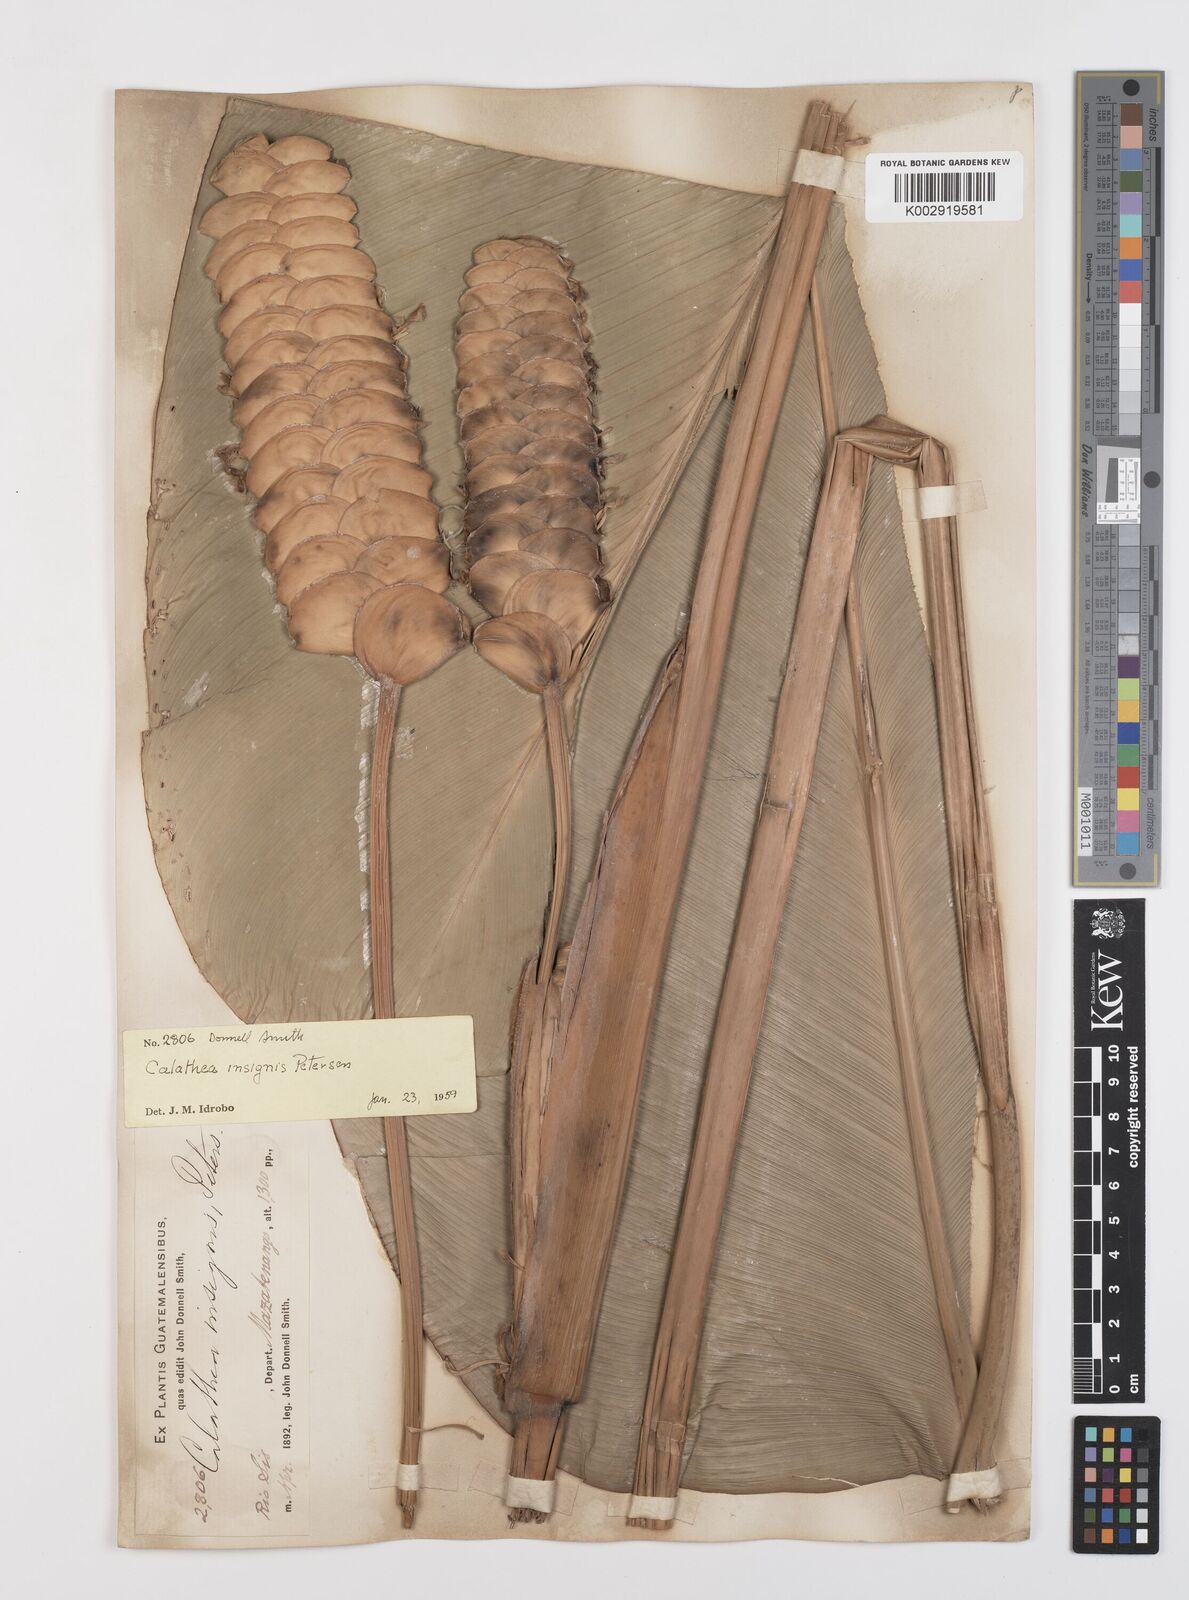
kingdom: Plantae
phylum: Tracheophyta
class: Liliopsida
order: Zingiberales
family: Marantaceae
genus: Calathea
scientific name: Calathea crotalifera
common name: Rattlesnake plant
